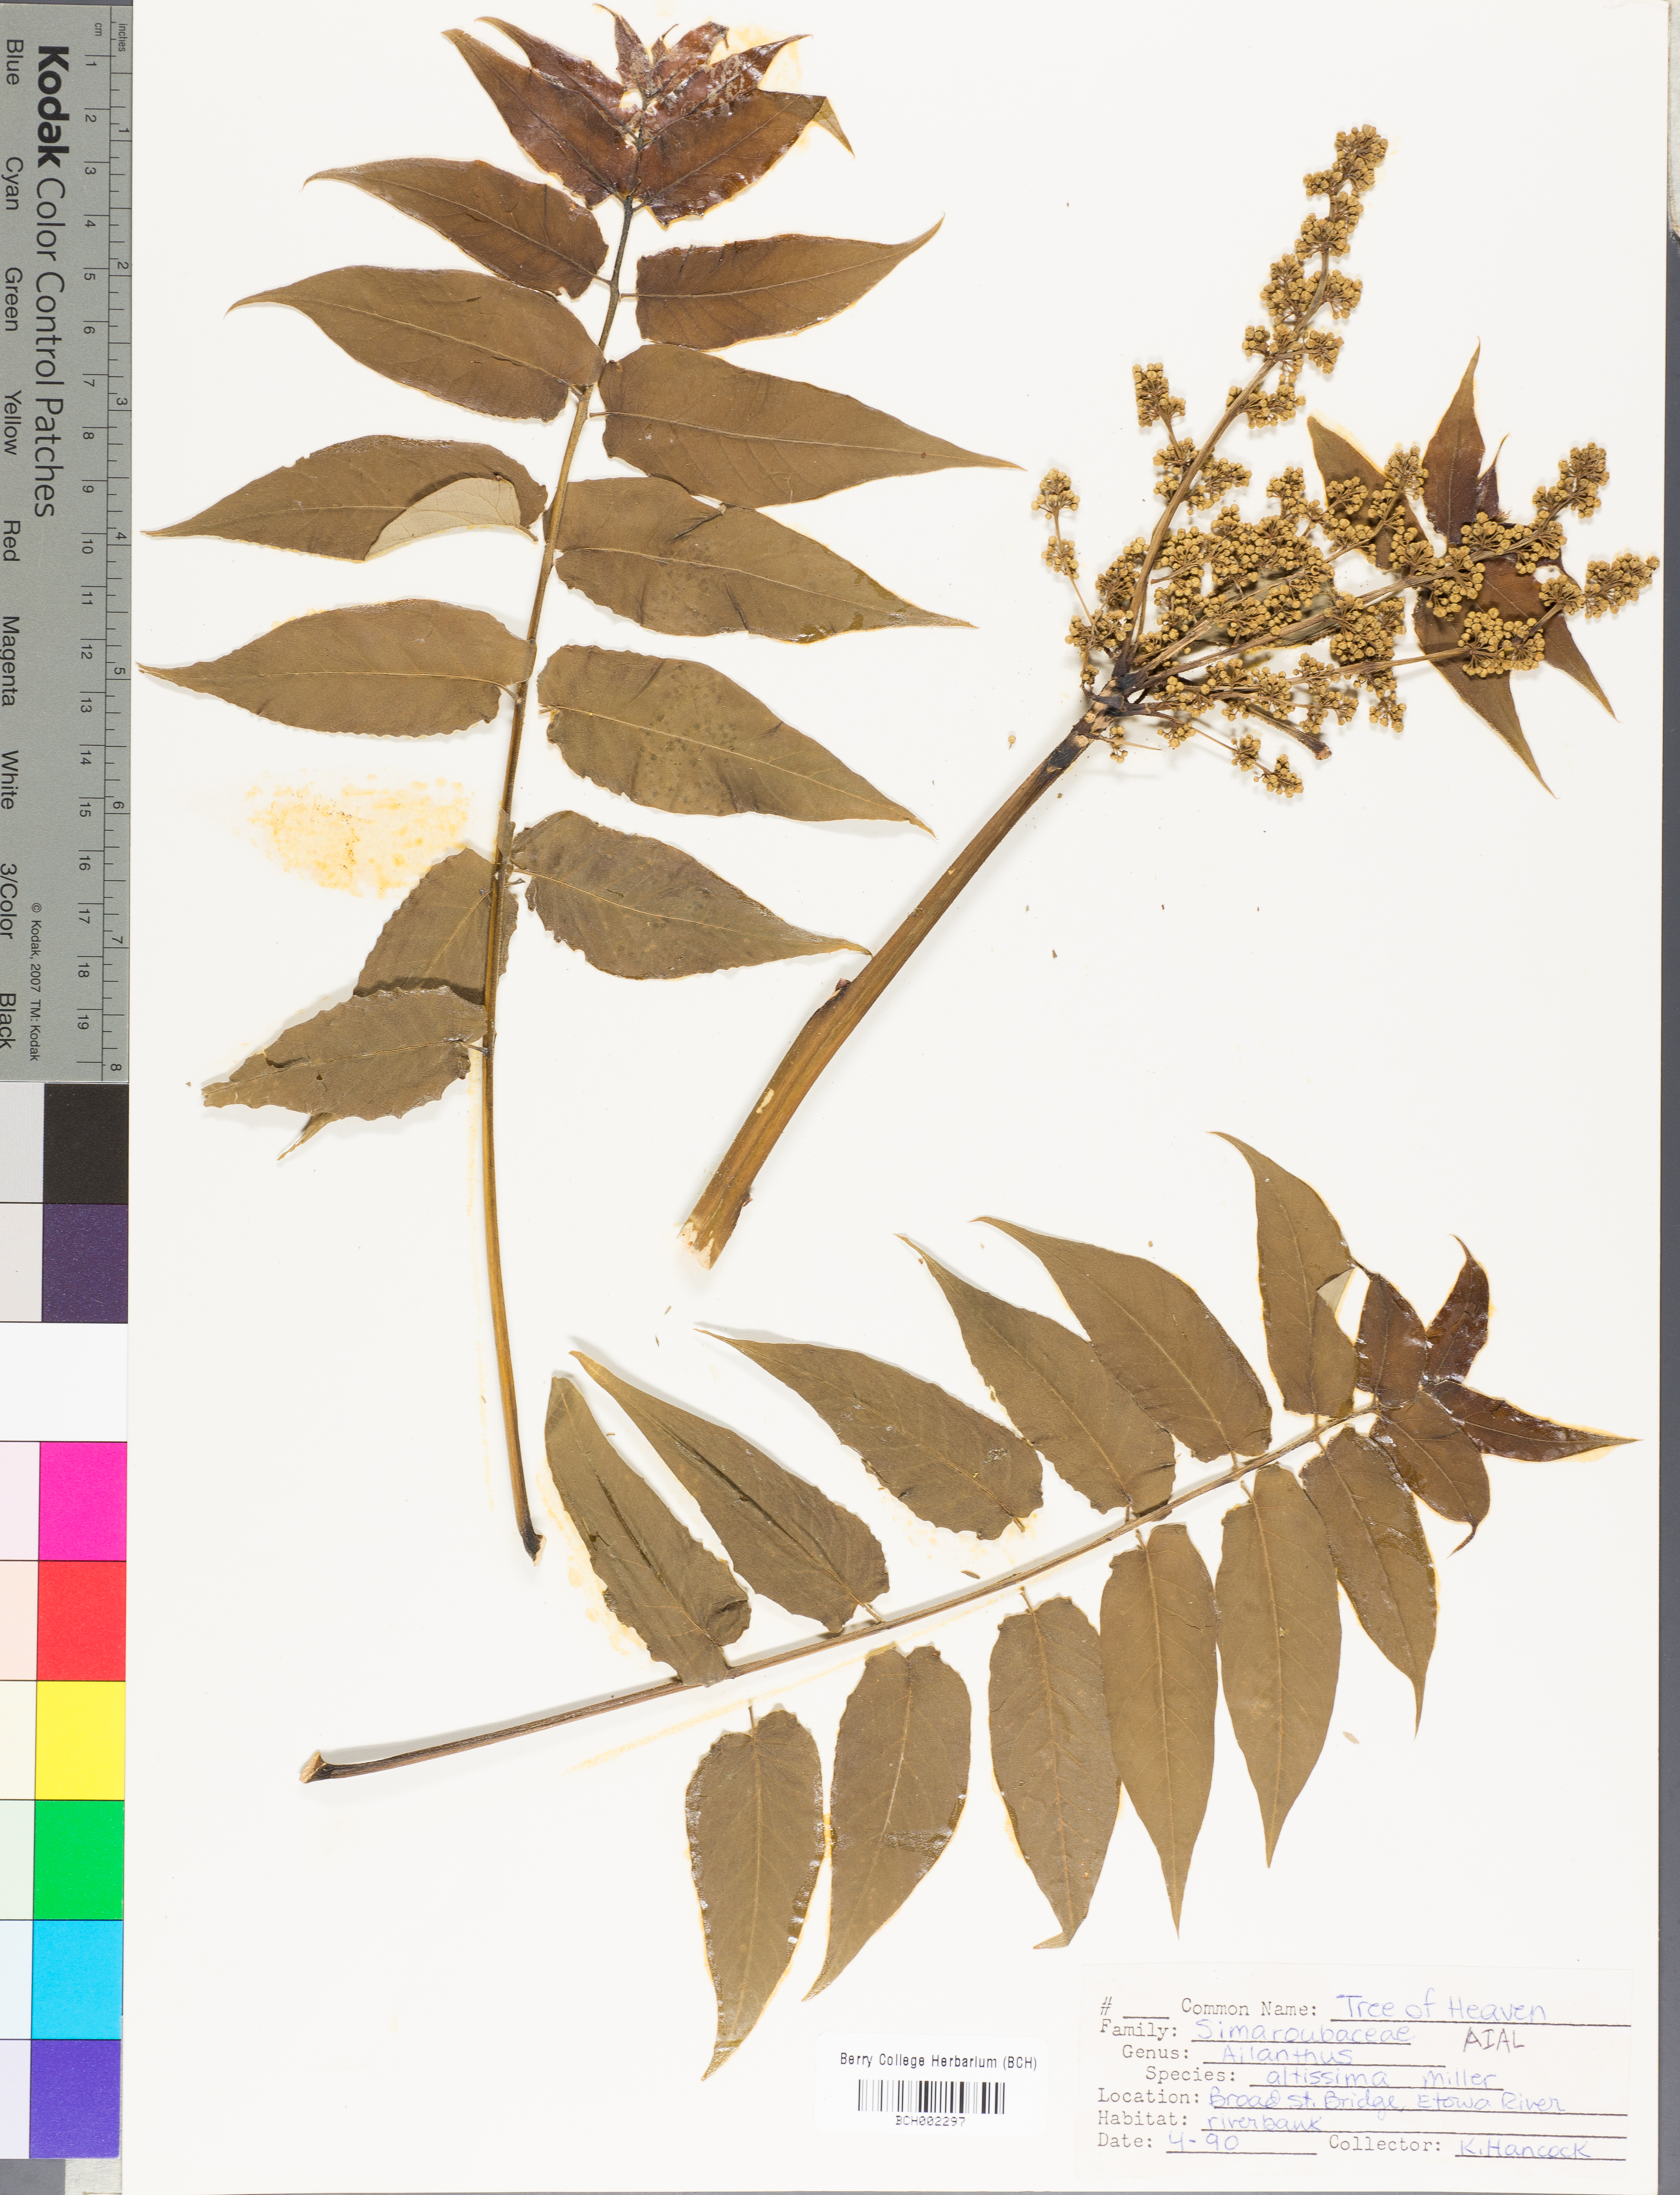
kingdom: Plantae
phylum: Tracheophyta
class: Magnoliopsida
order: Sapindales
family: Simaroubaceae
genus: Ailanthus
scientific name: Ailanthus altissima
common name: Tree-of-heaven
